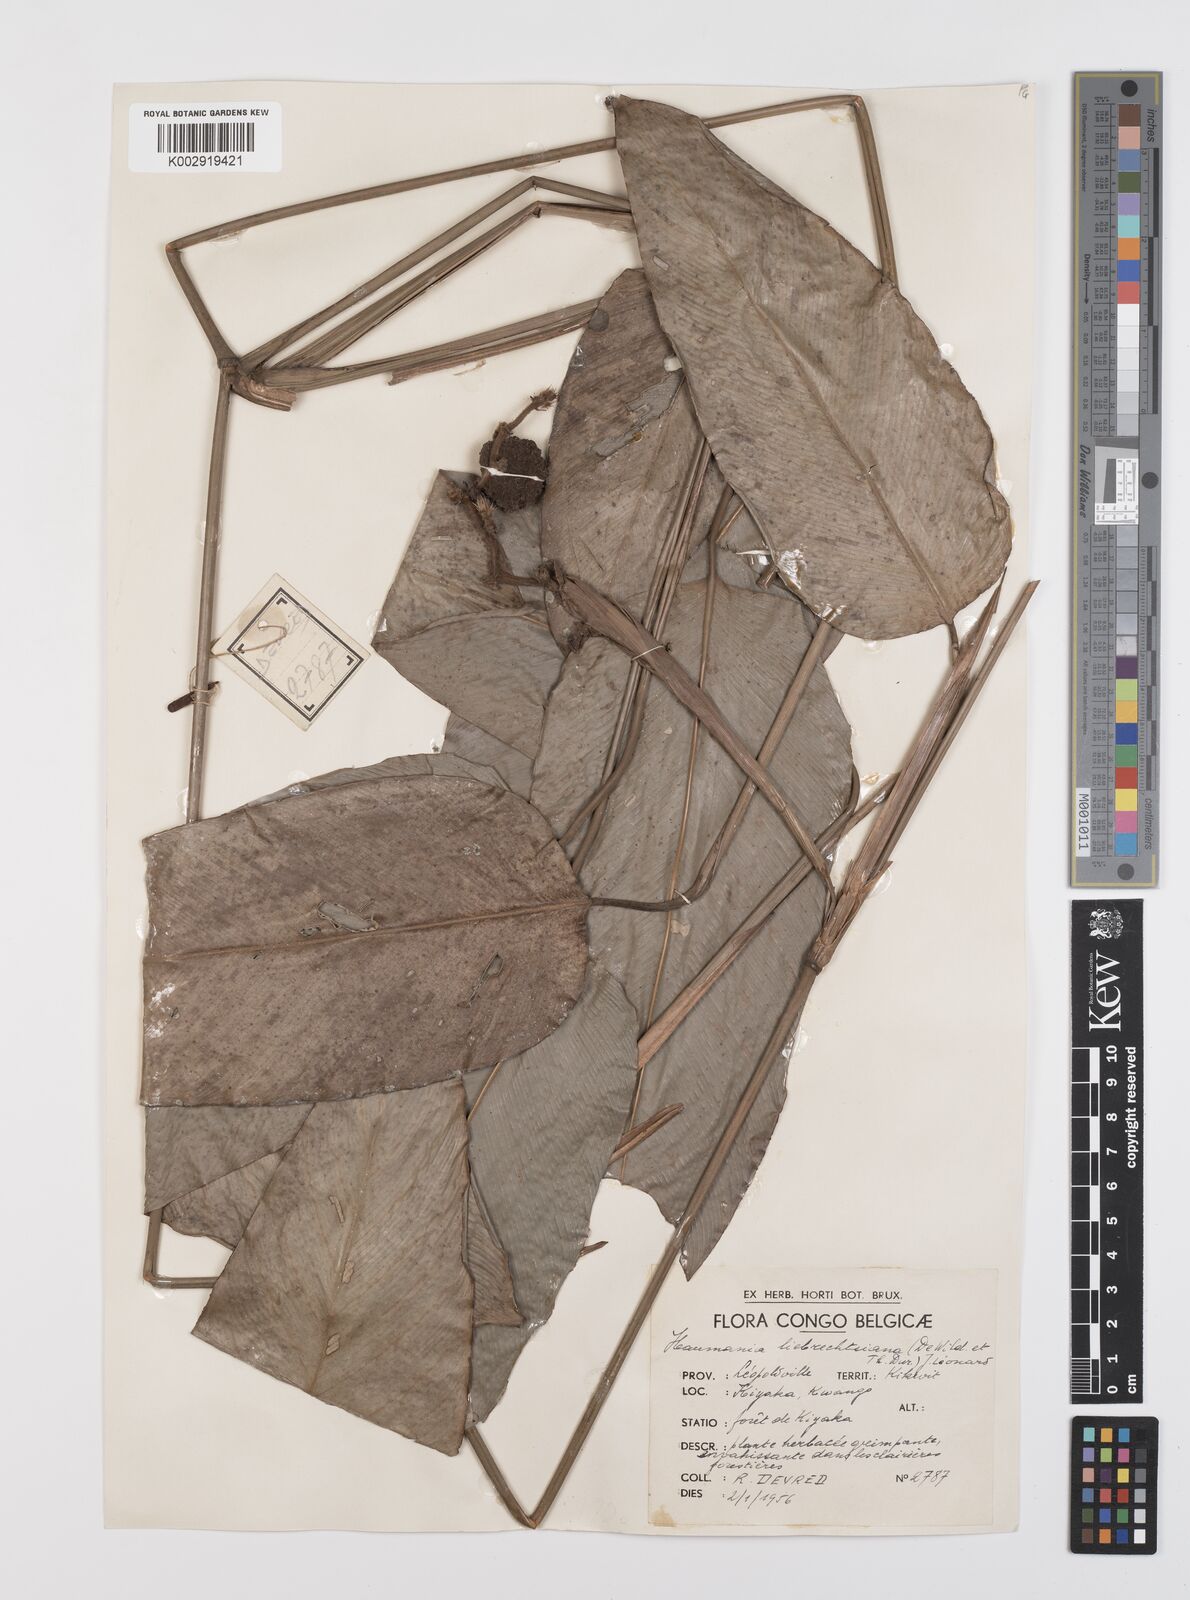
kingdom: Plantae
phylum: Tracheophyta
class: Liliopsida
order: Zingiberales
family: Marantaceae
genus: Haumania
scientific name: Haumania liebrechtsiana
